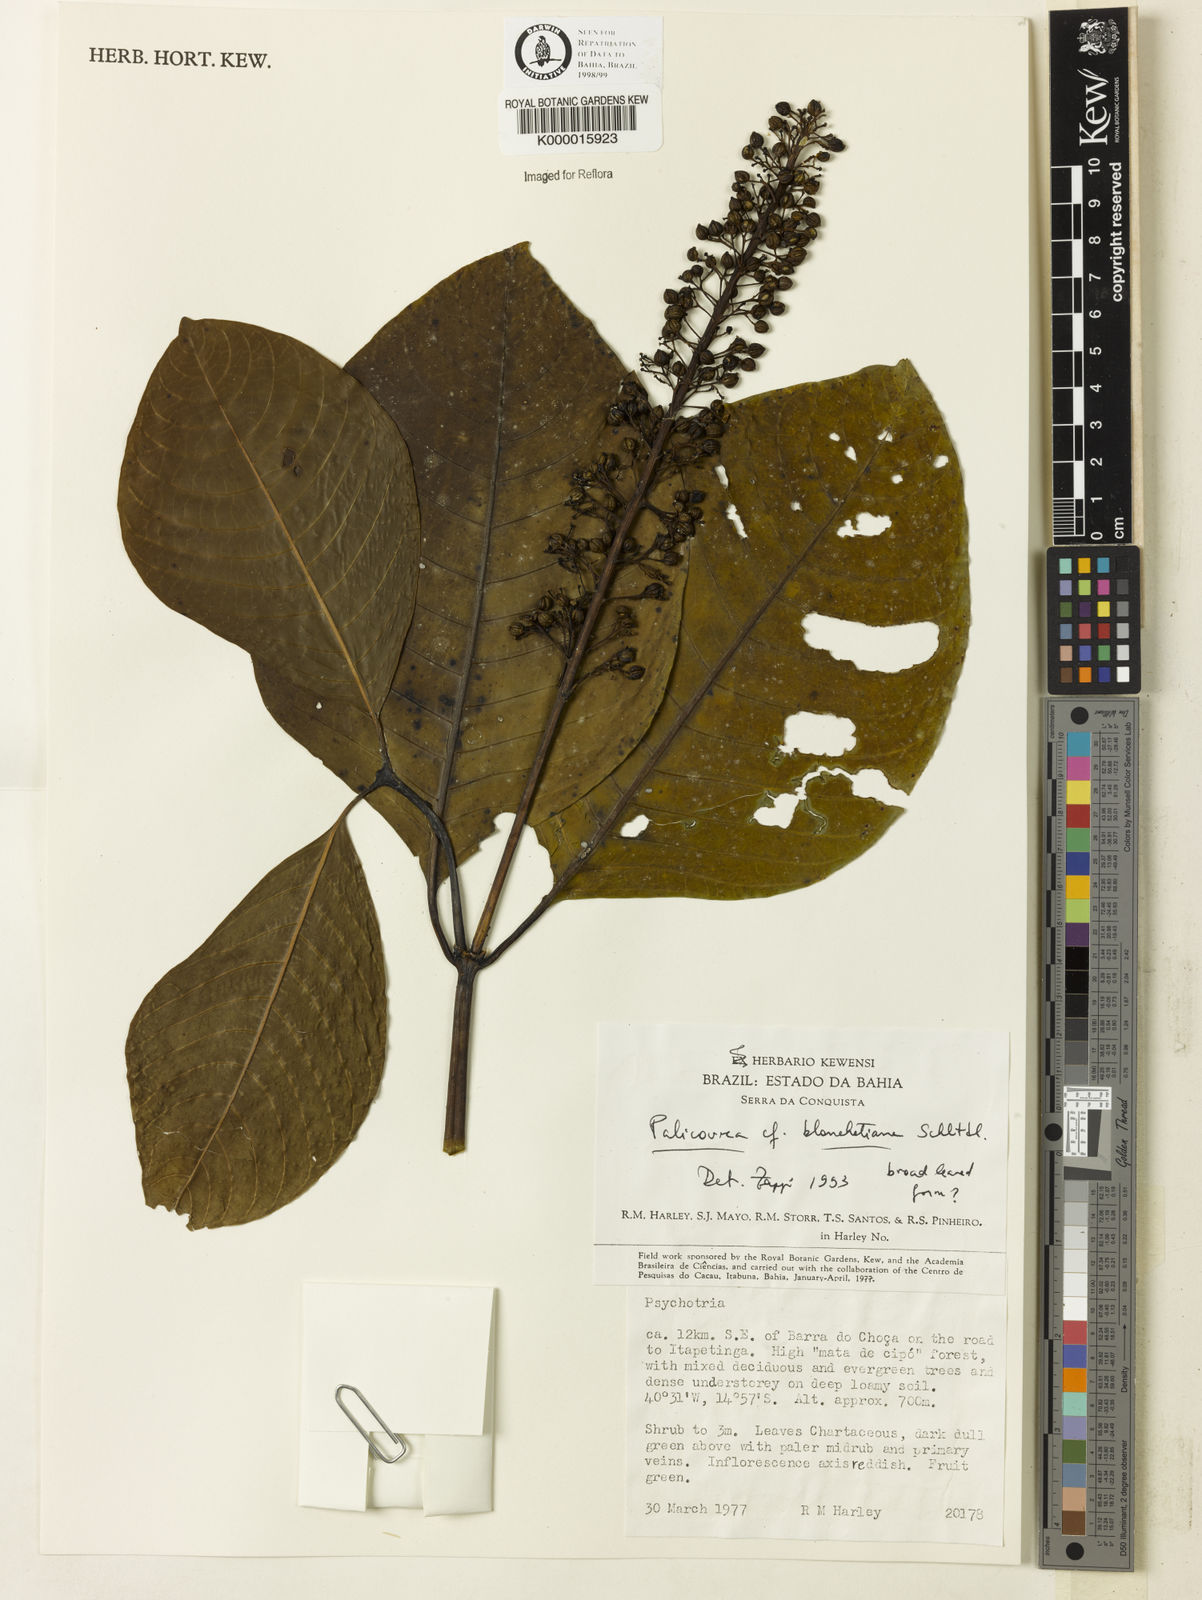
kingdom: Plantae
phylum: Tracheophyta
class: Magnoliopsida
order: Gentianales
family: Rubiaceae
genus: Palicourea
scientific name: Palicourea blanchetiana
